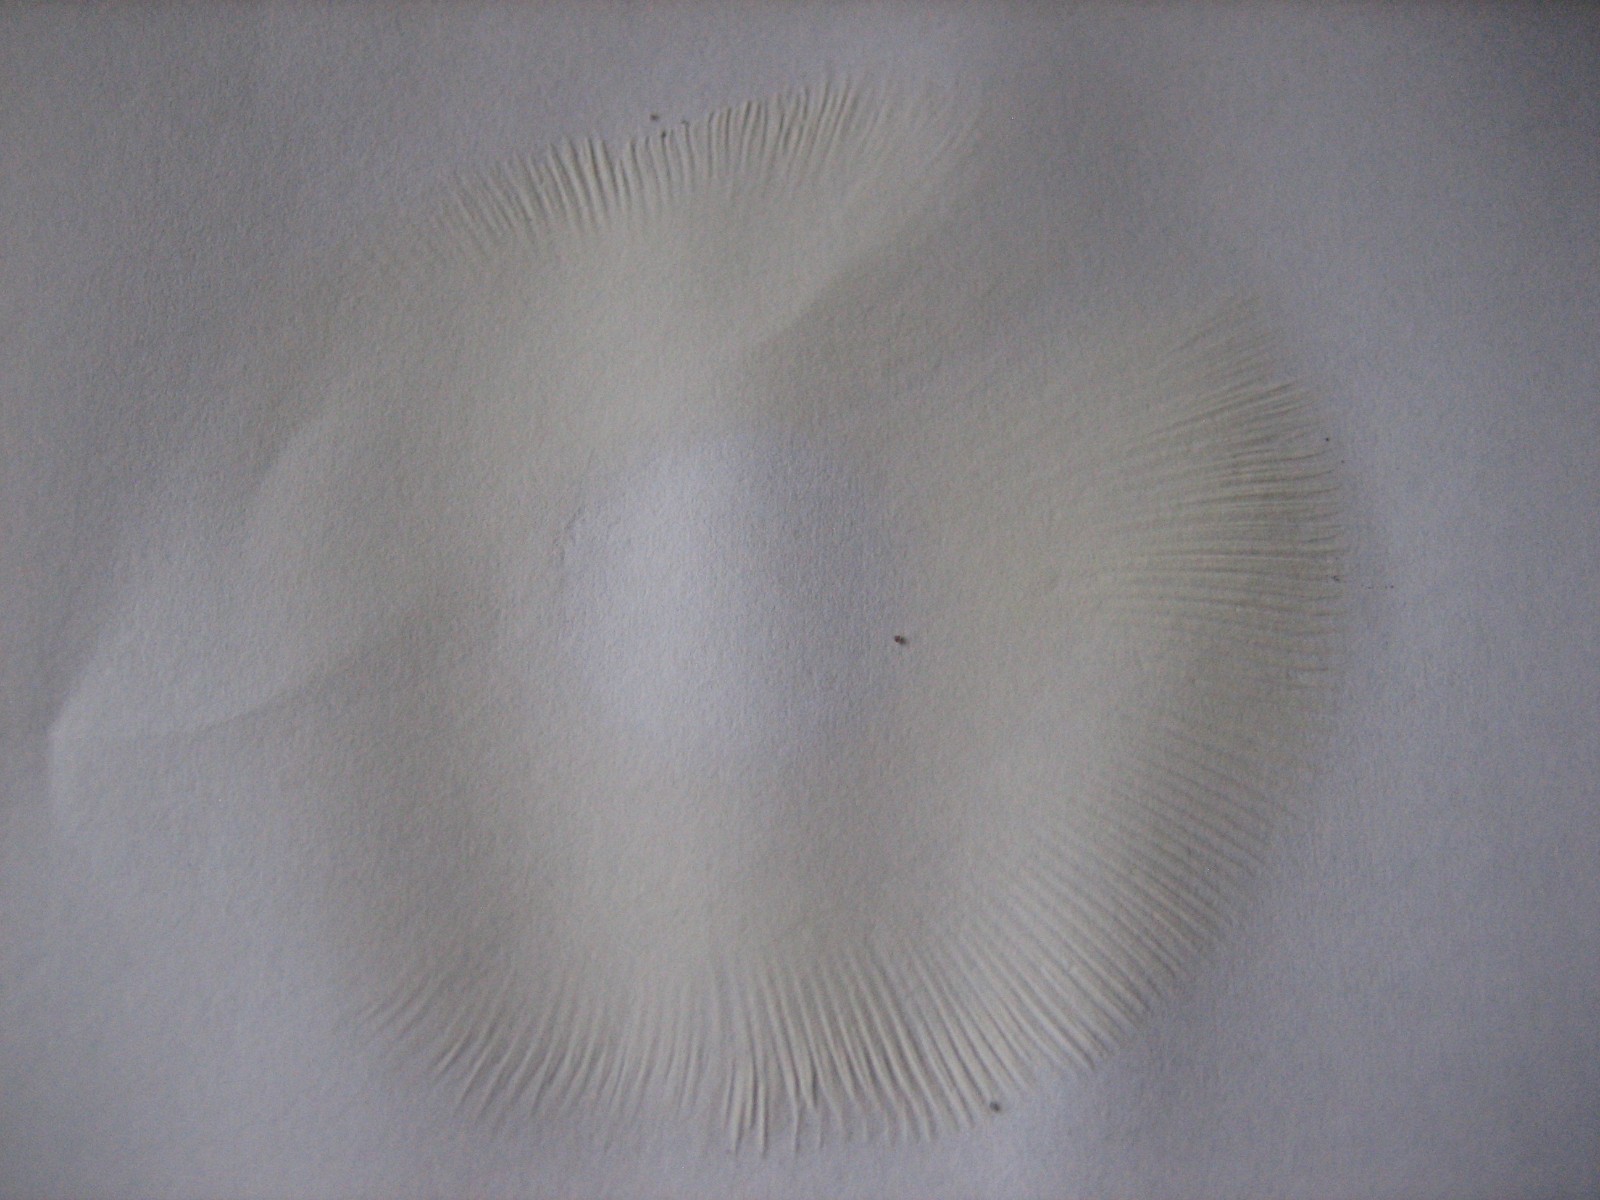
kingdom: Fungi
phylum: Basidiomycota
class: Agaricomycetes
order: Russulales
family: Russulaceae
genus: Russula
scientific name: Russula vesca
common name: spiselig skørhat
